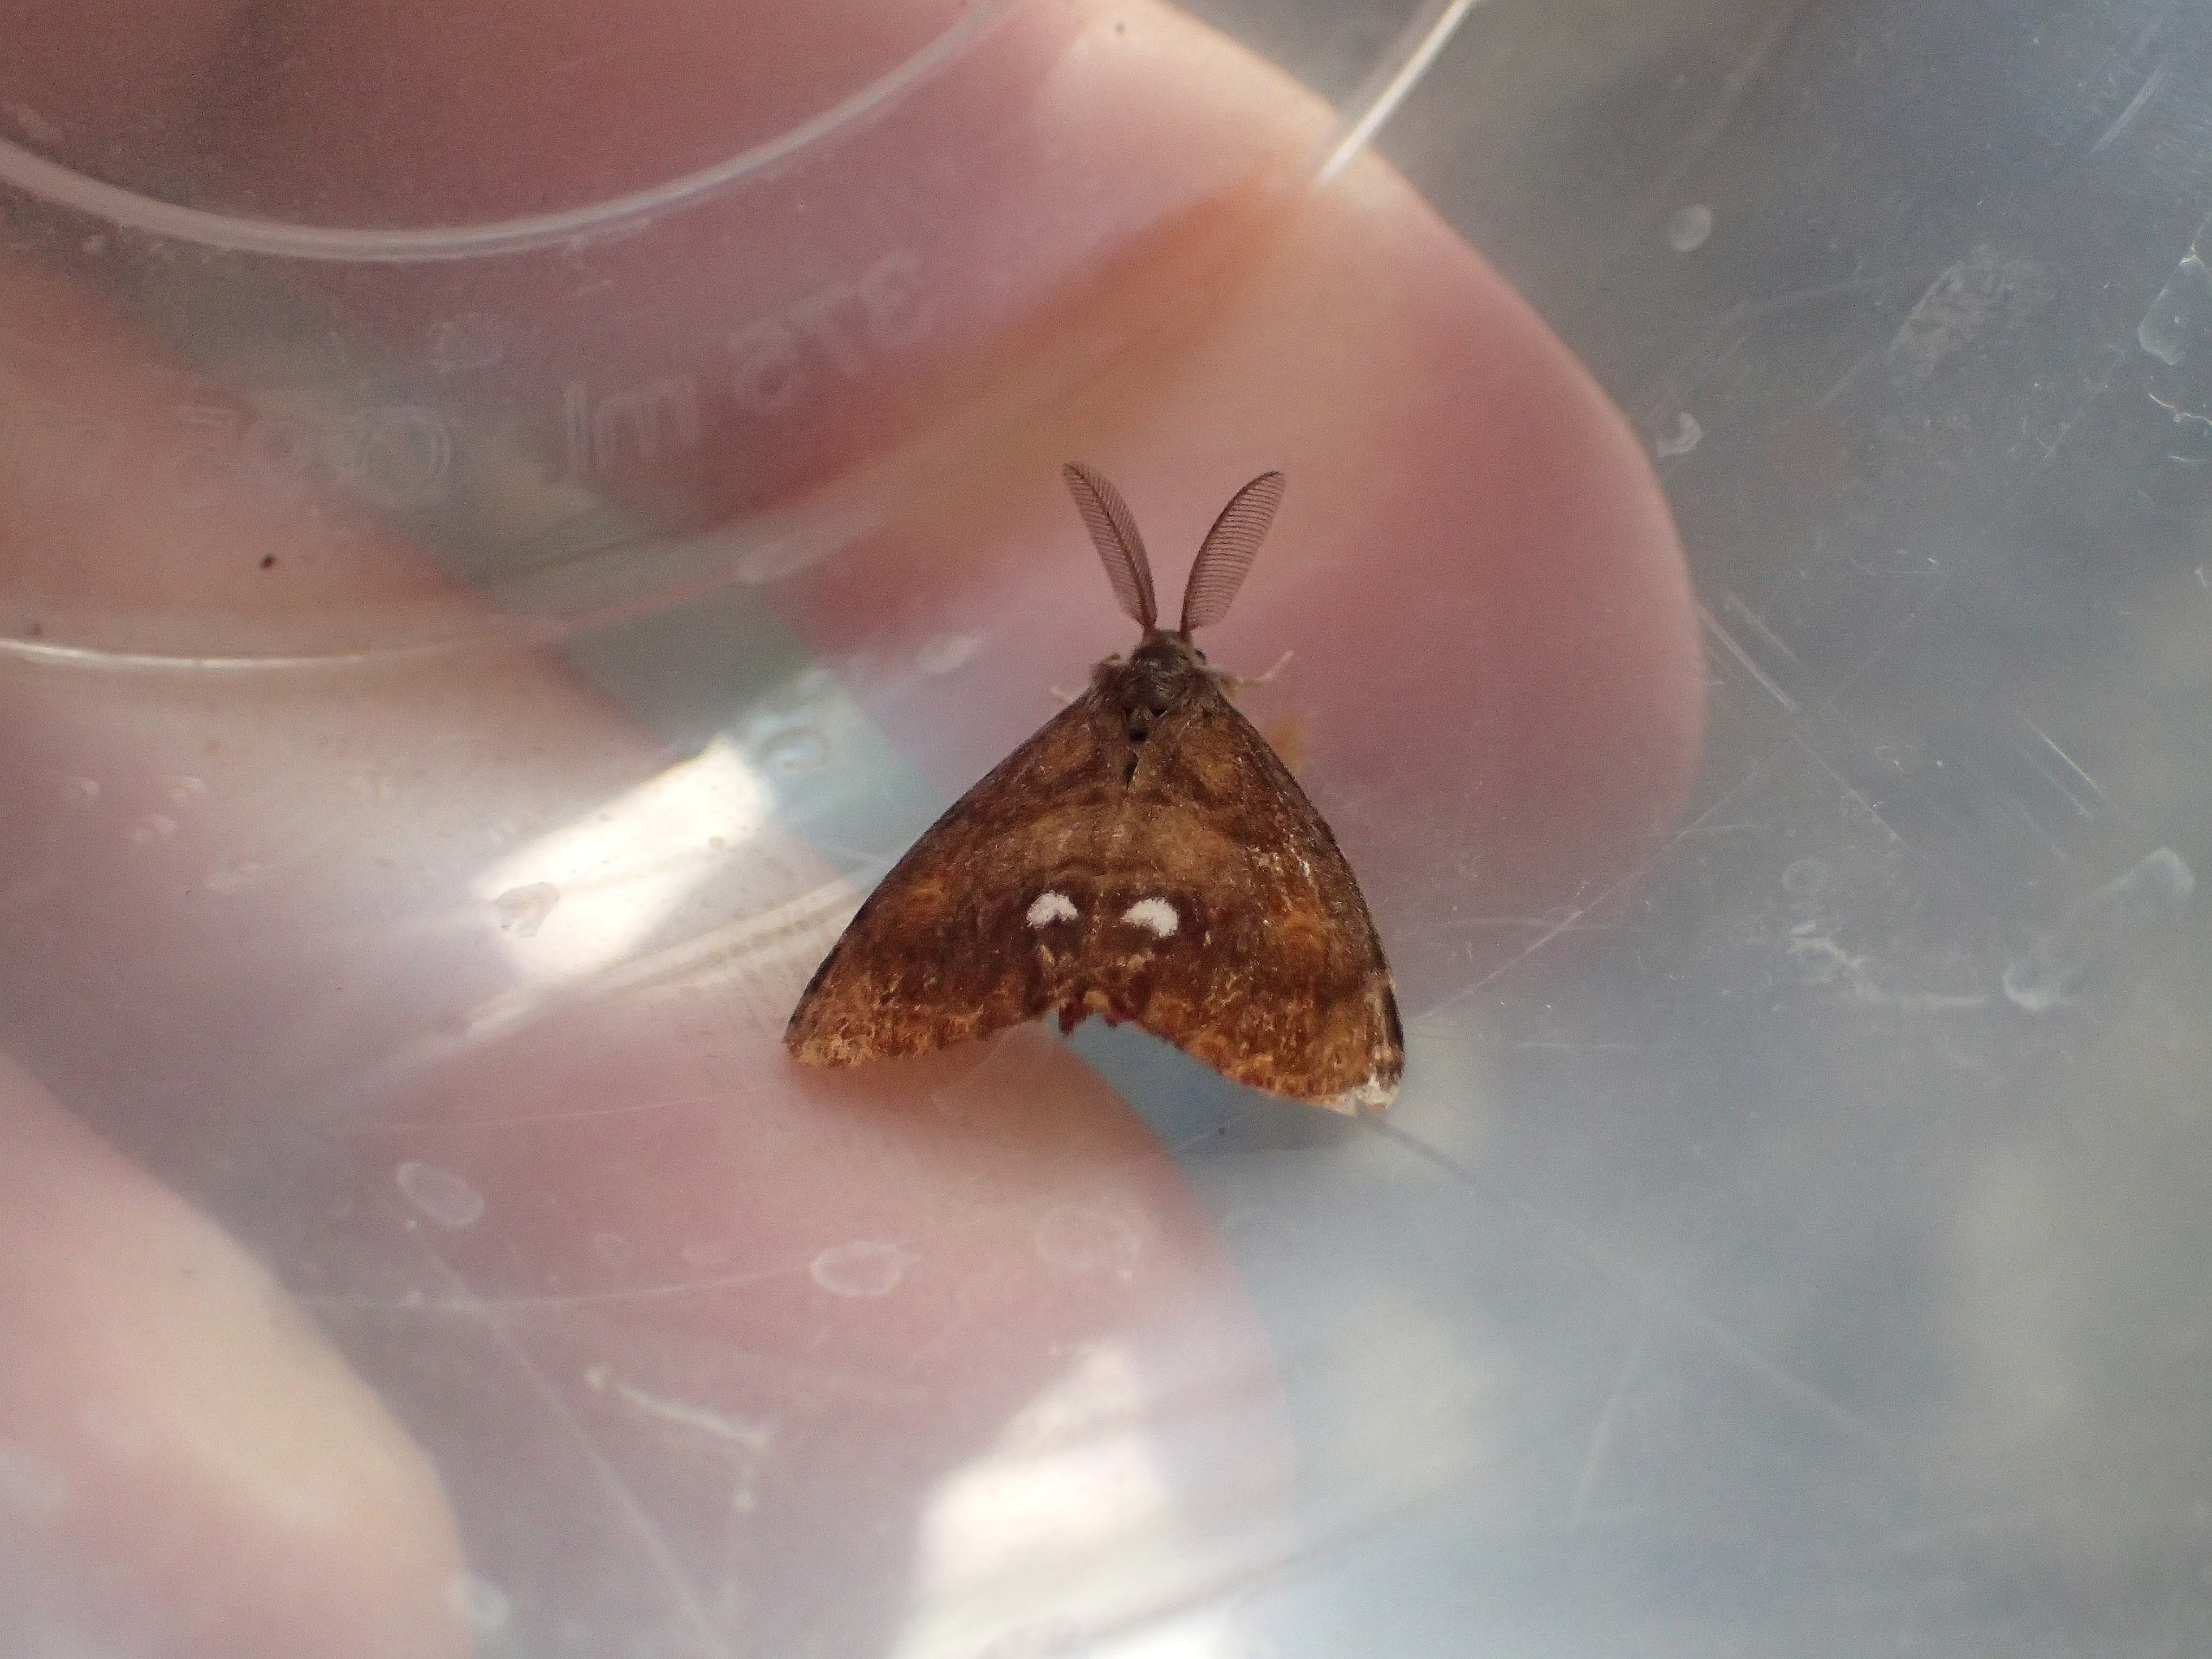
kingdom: Animalia
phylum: Arthropoda
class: Insecta
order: Lepidoptera
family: Erebidae
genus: Orgyia
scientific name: Orgyia antiqua
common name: Lille penselspinder
